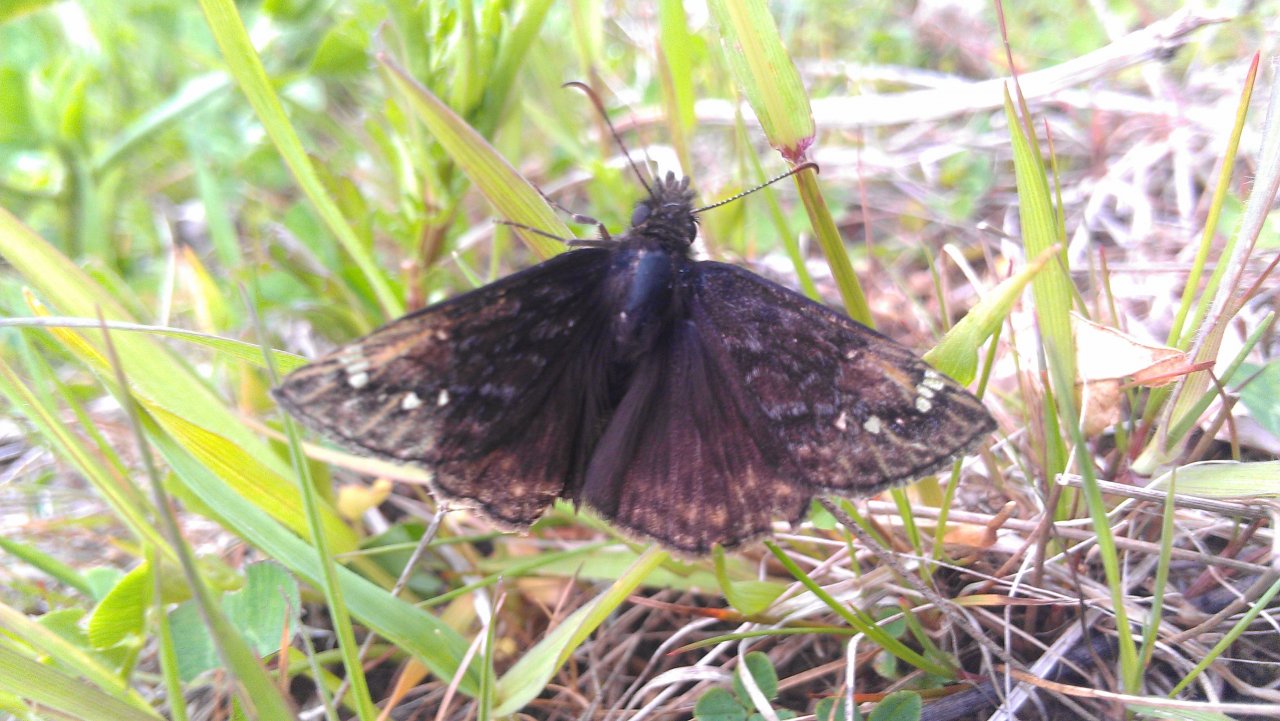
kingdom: Animalia
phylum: Arthropoda
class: Insecta
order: Lepidoptera
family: Hesperiidae
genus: Gesta
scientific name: Gesta
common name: Juvenal's Duskywing
